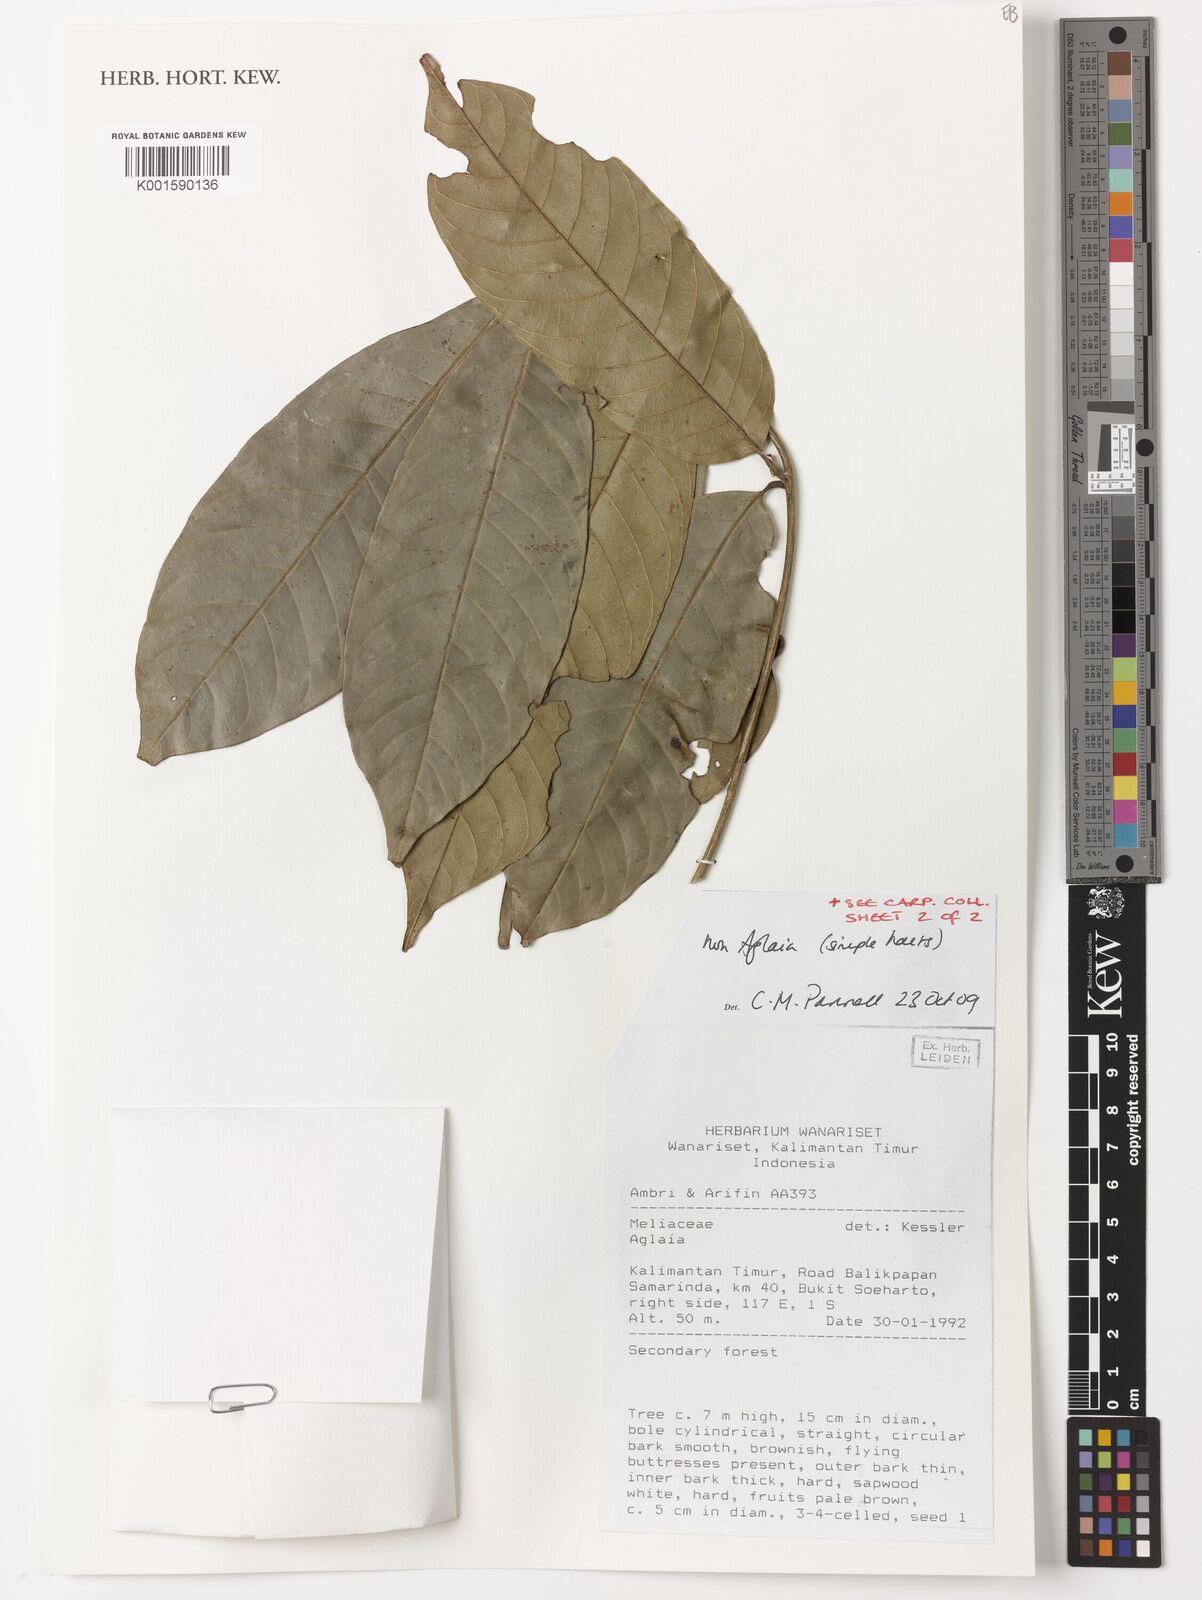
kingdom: Plantae
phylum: Tracheophyta
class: Magnoliopsida
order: Sapindales
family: Meliaceae
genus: Aglaia
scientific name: Aglaia
